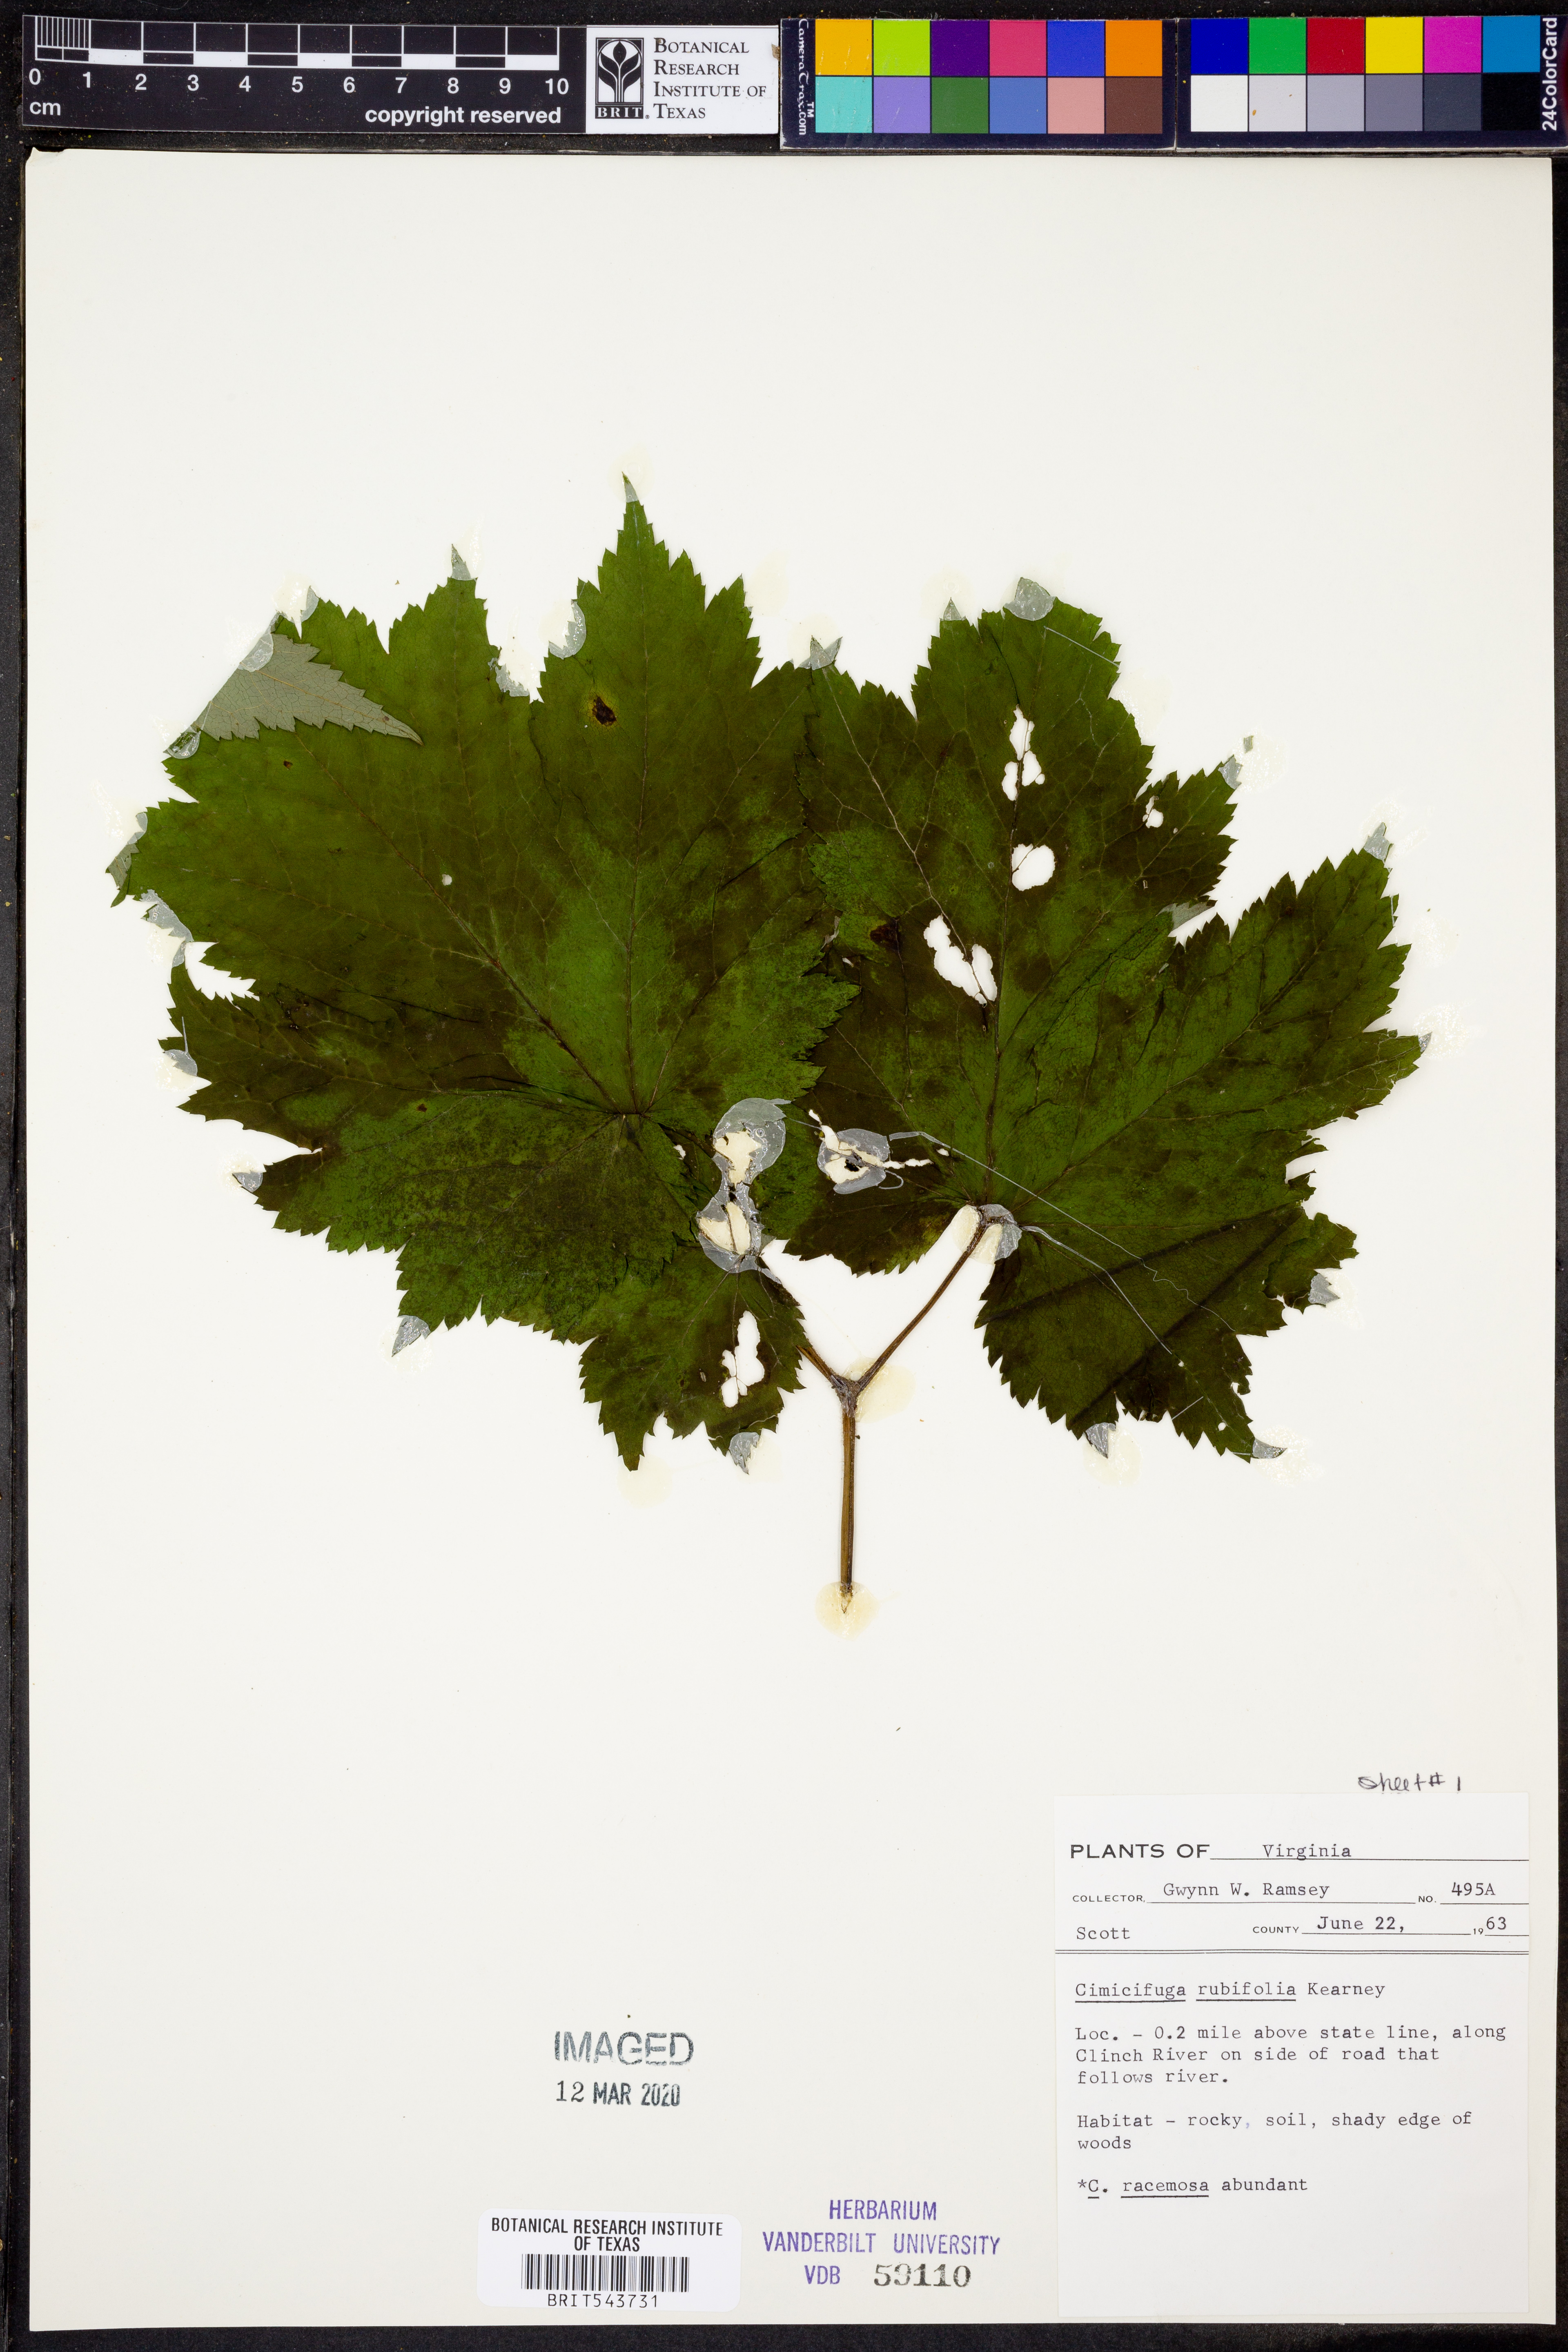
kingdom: Plantae
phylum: Tracheophyta
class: Magnoliopsida
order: Ranunculales
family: Ranunculaceae
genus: Actaea
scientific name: Actaea rubifolia
